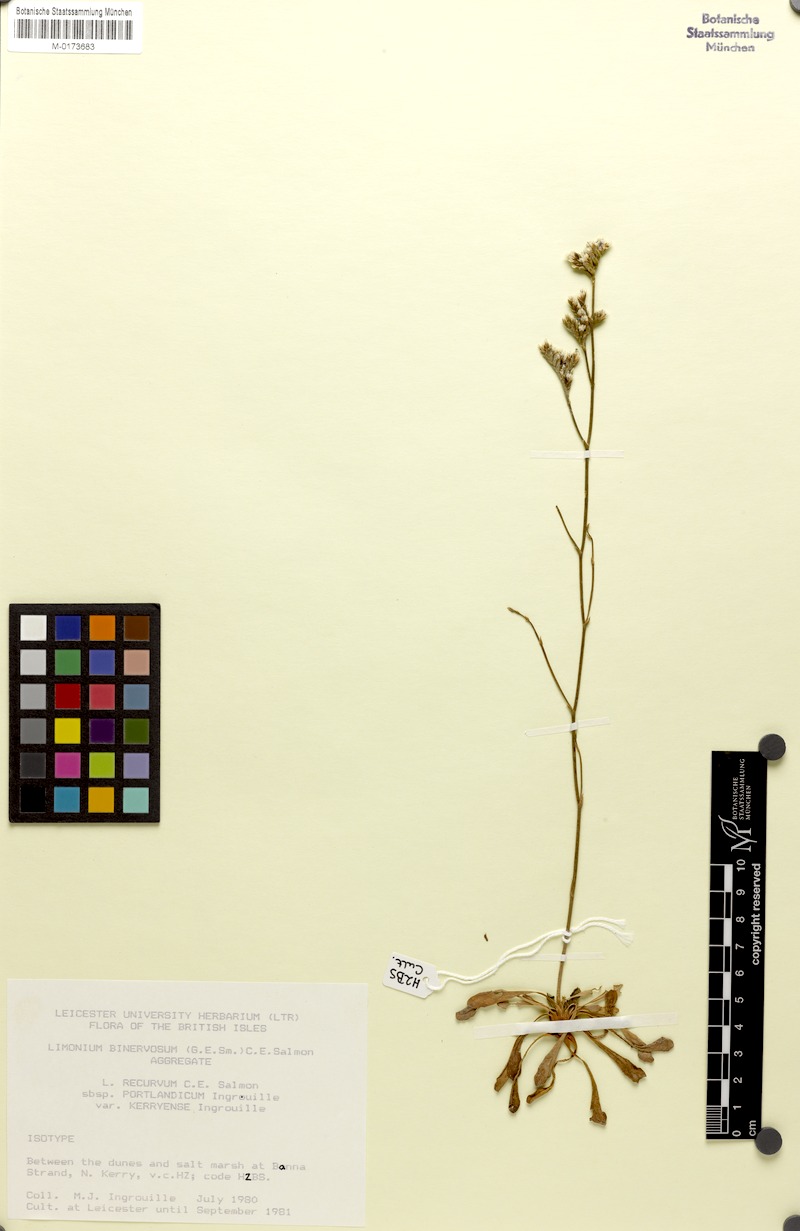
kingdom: Plantae
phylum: Tracheophyta
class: Magnoliopsida
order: Caryophyllales
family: Plumbaginaceae
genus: Limonium
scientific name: Limonium recurvum
